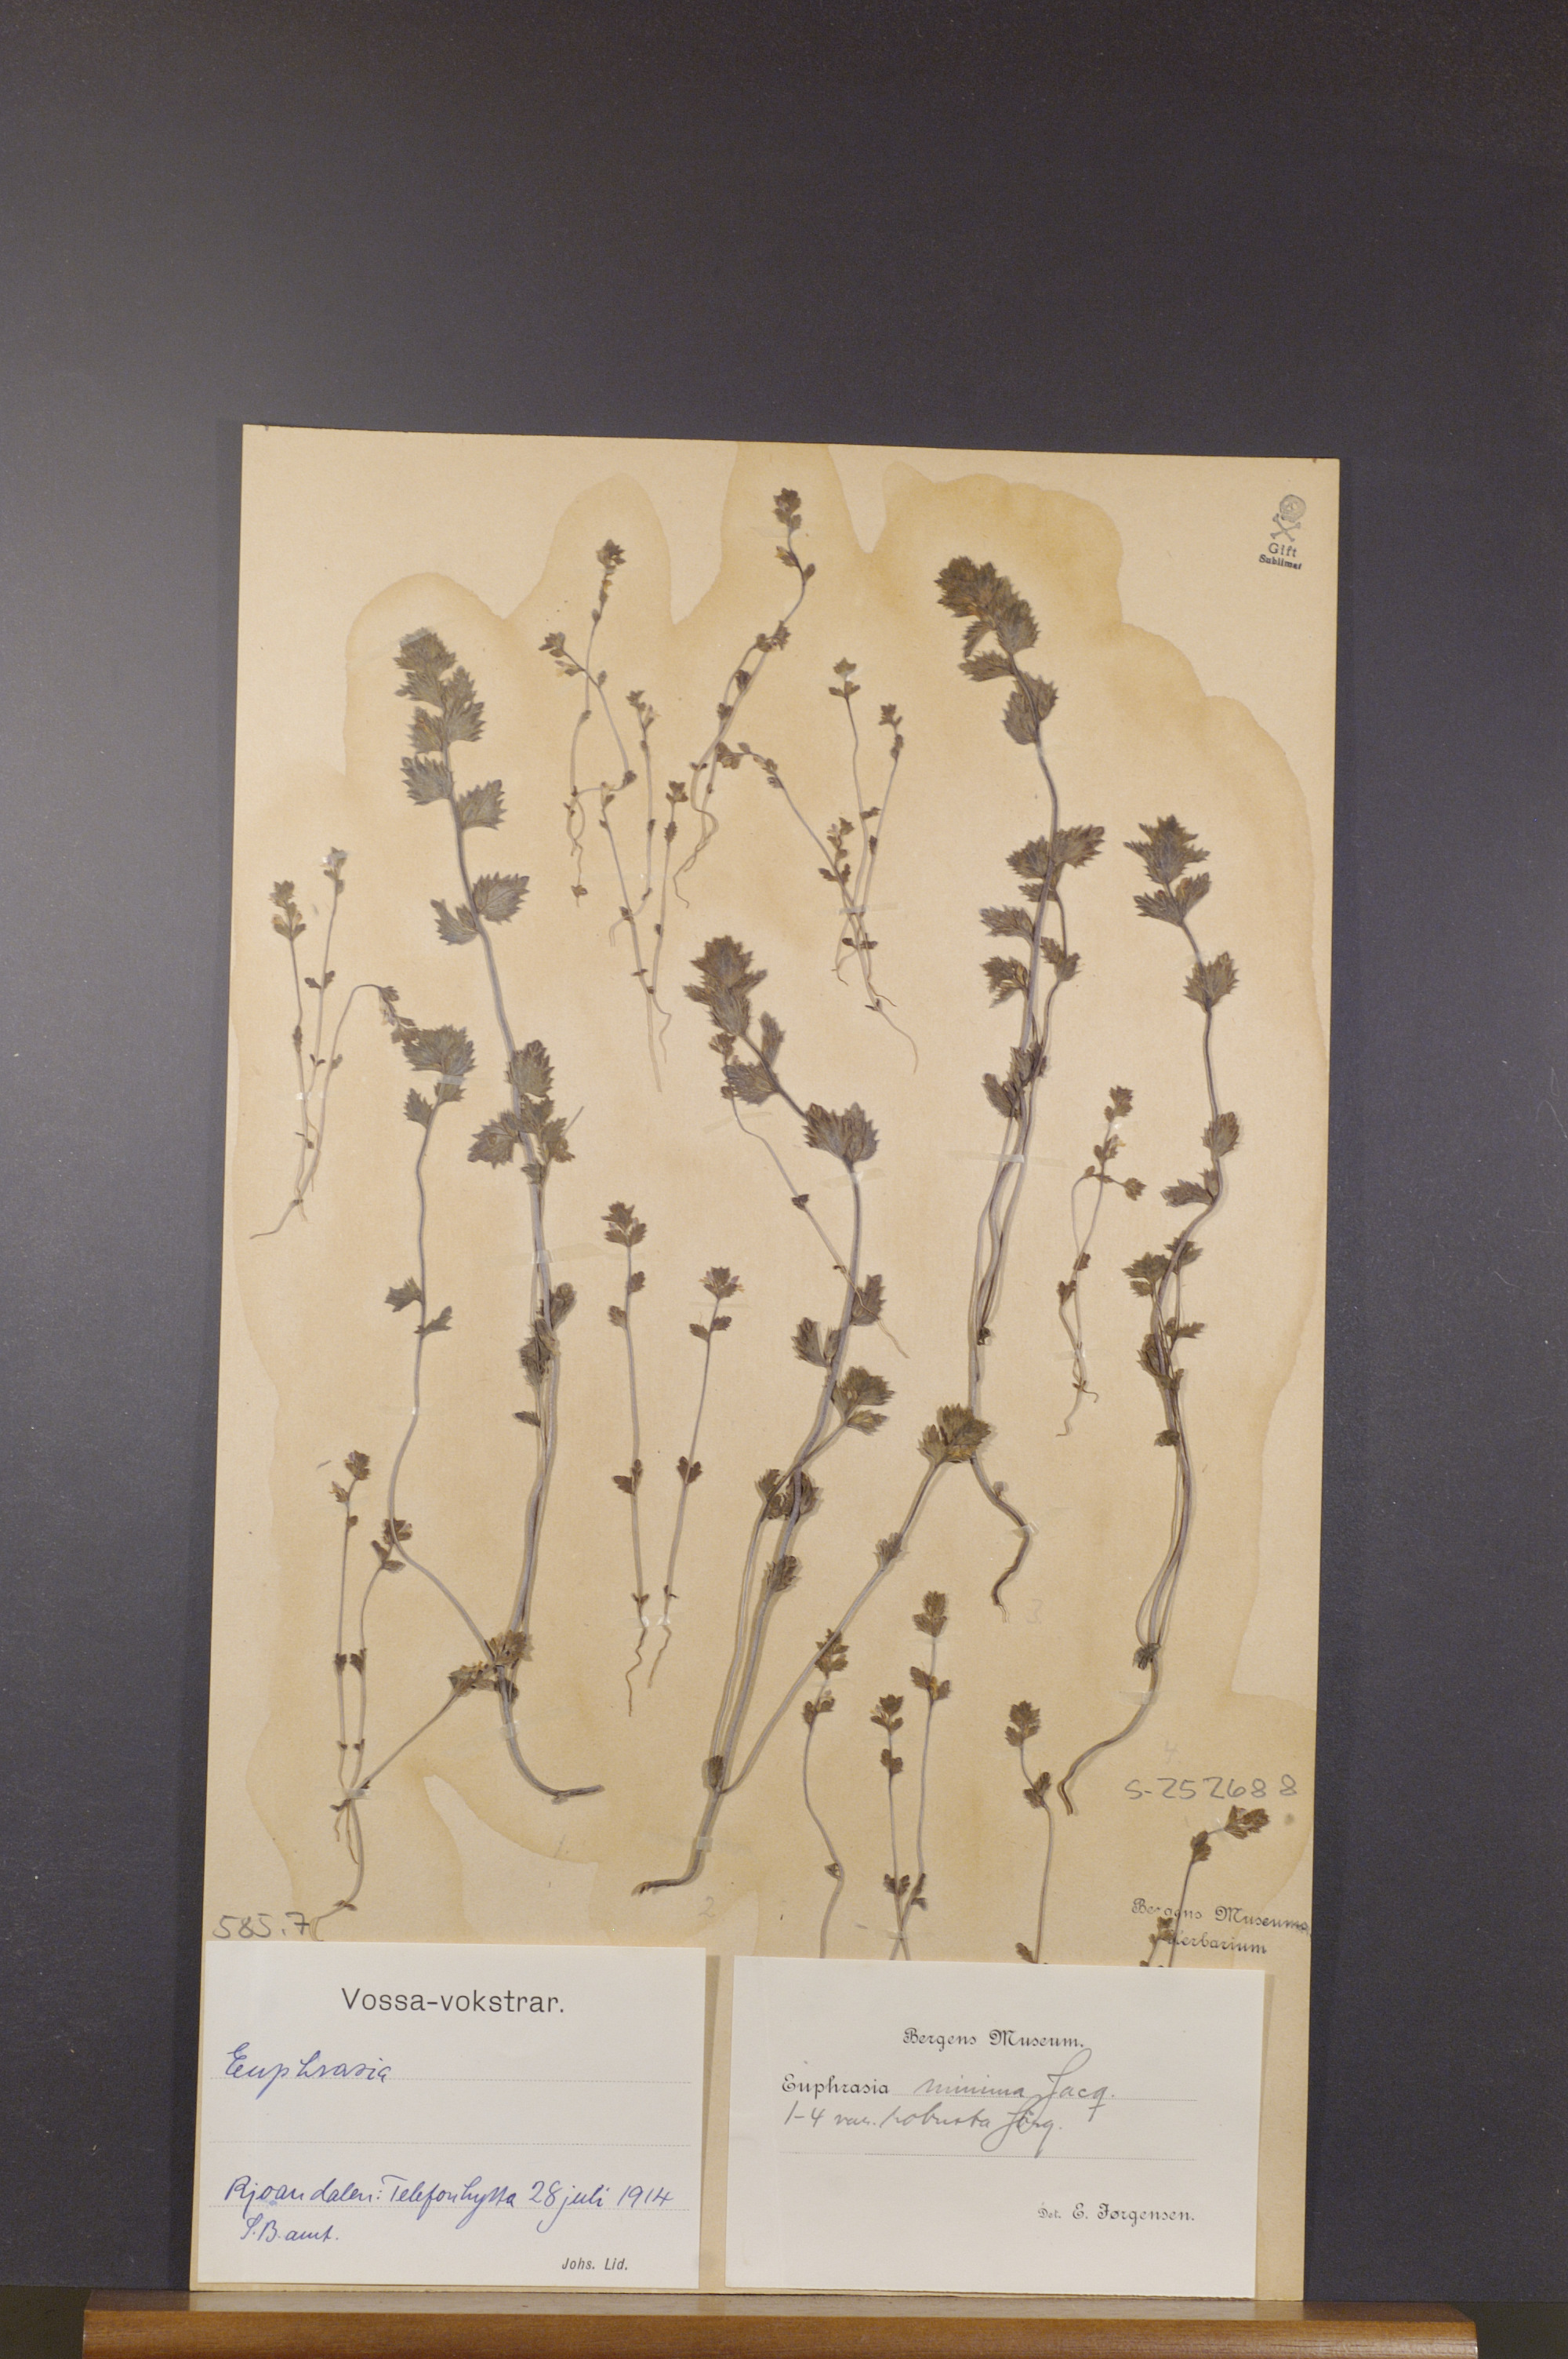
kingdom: Plantae
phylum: Tracheophyta
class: Magnoliopsida
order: Lamiales
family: Orobanchaceae
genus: Euphrasia
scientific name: Euphrasia minima
